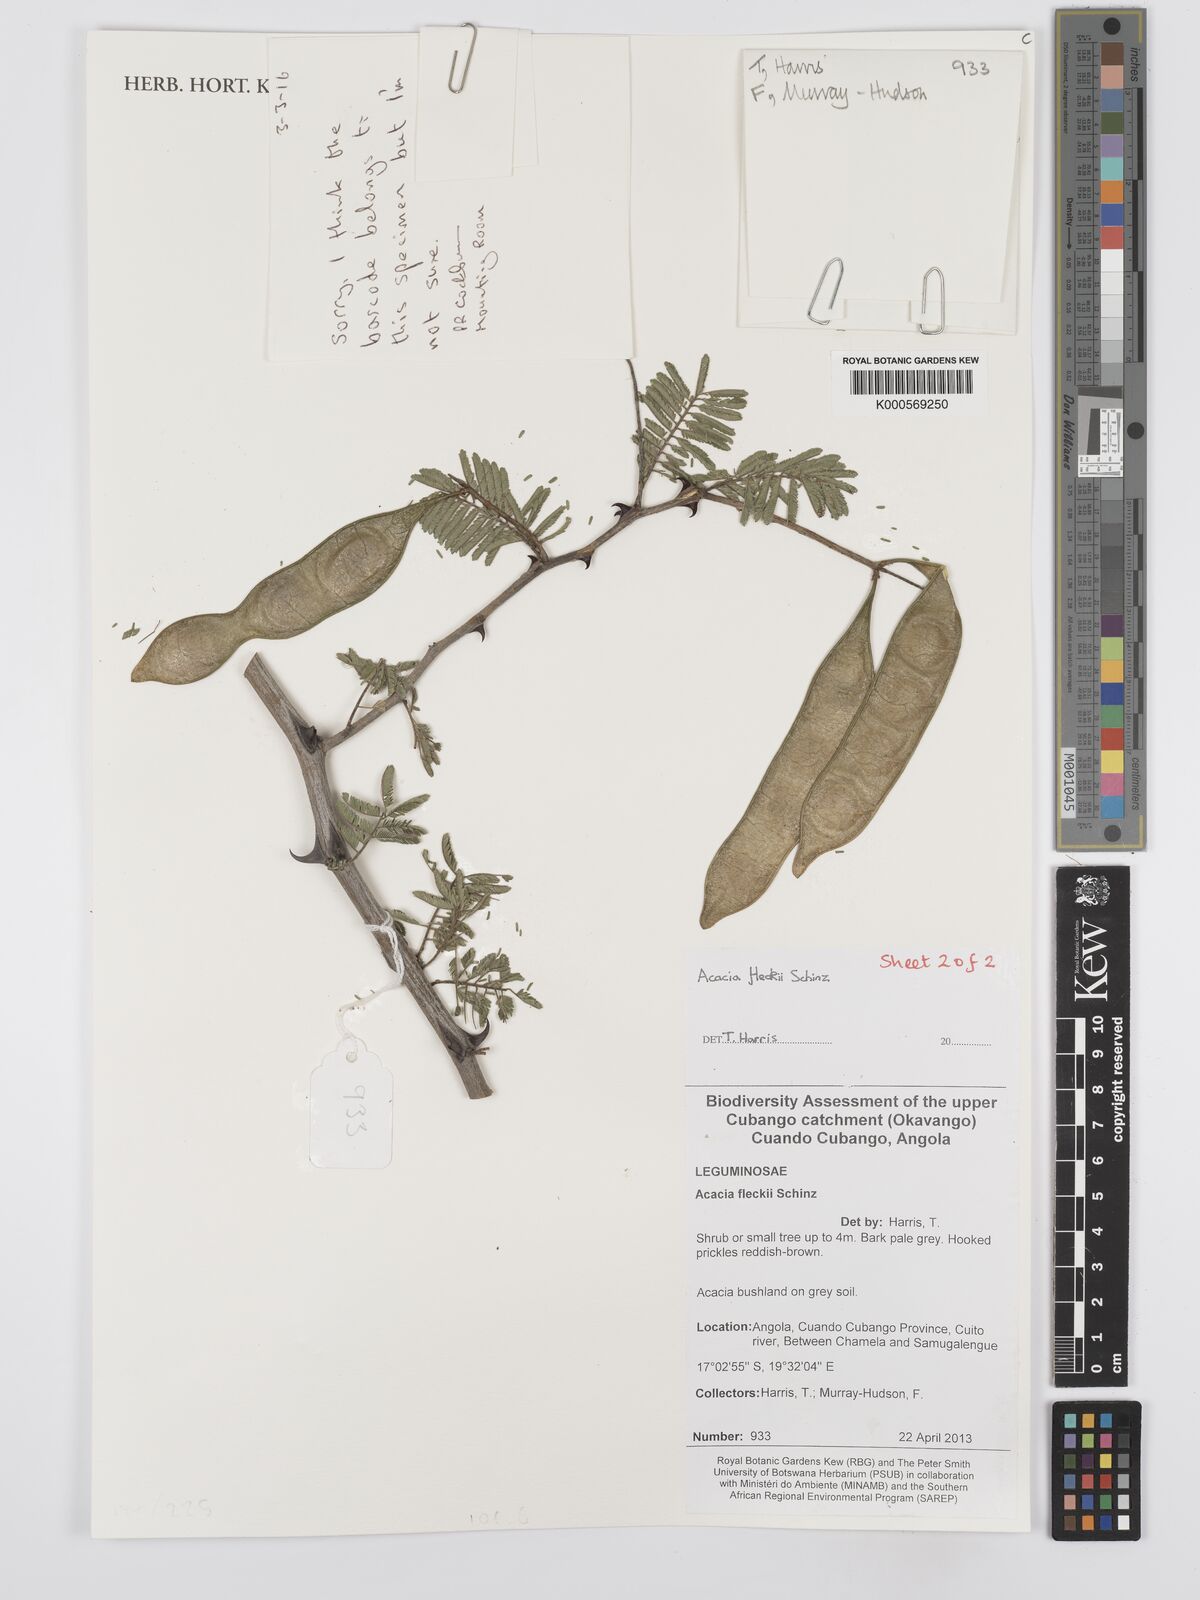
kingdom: Plantae
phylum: Tracheophyta
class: Magnoliopsida
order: Fabales
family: Fabaceae
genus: Vachellia
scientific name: Vachellia hockii
